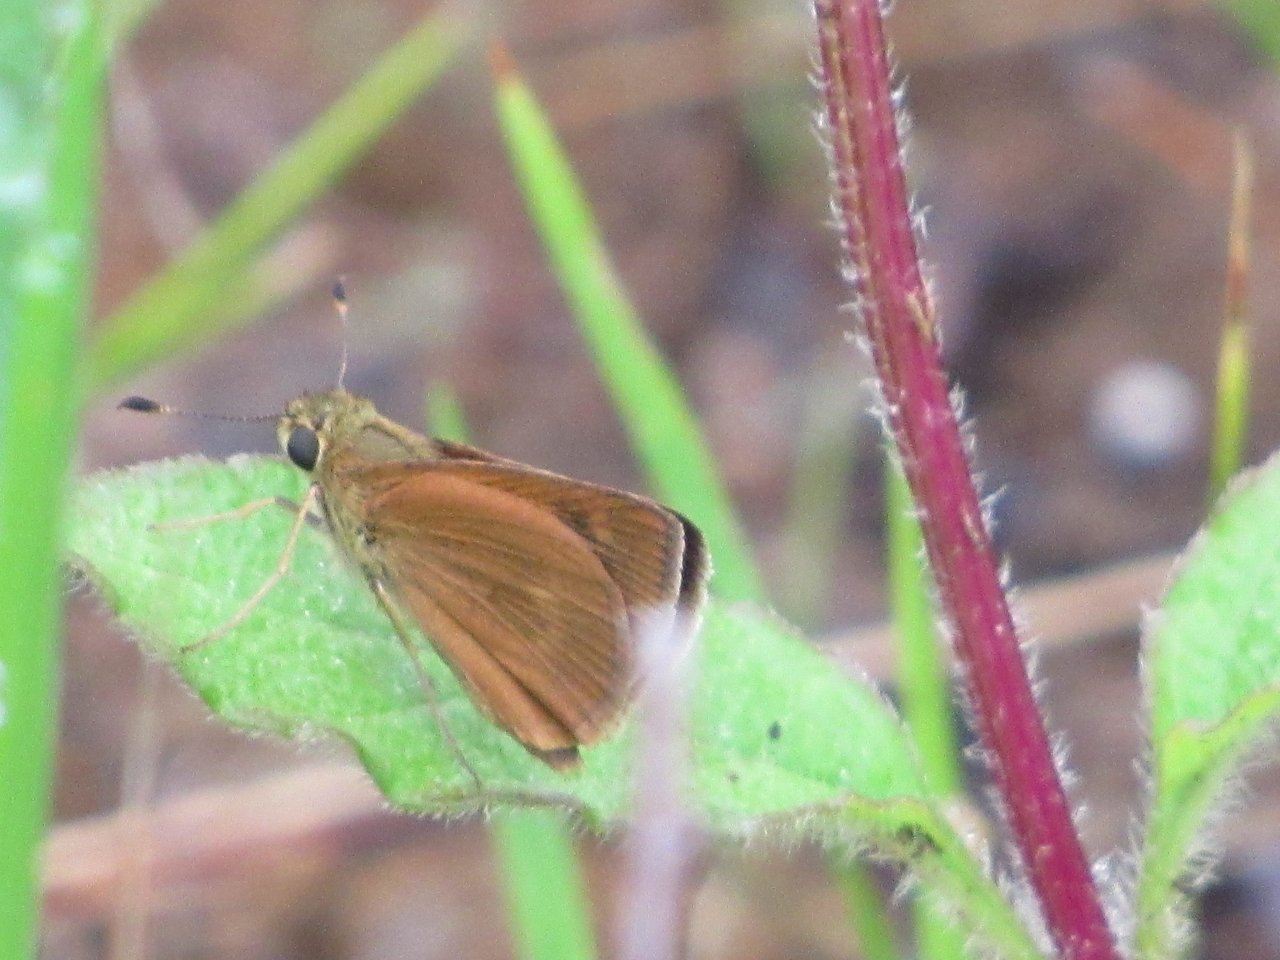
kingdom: Animalia
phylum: Arthropoda
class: Insecta
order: Lepidoptera
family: Hesperiidae
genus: Wallengrenia
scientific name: Wallengrenia otho
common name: Southern Broken-Dash
